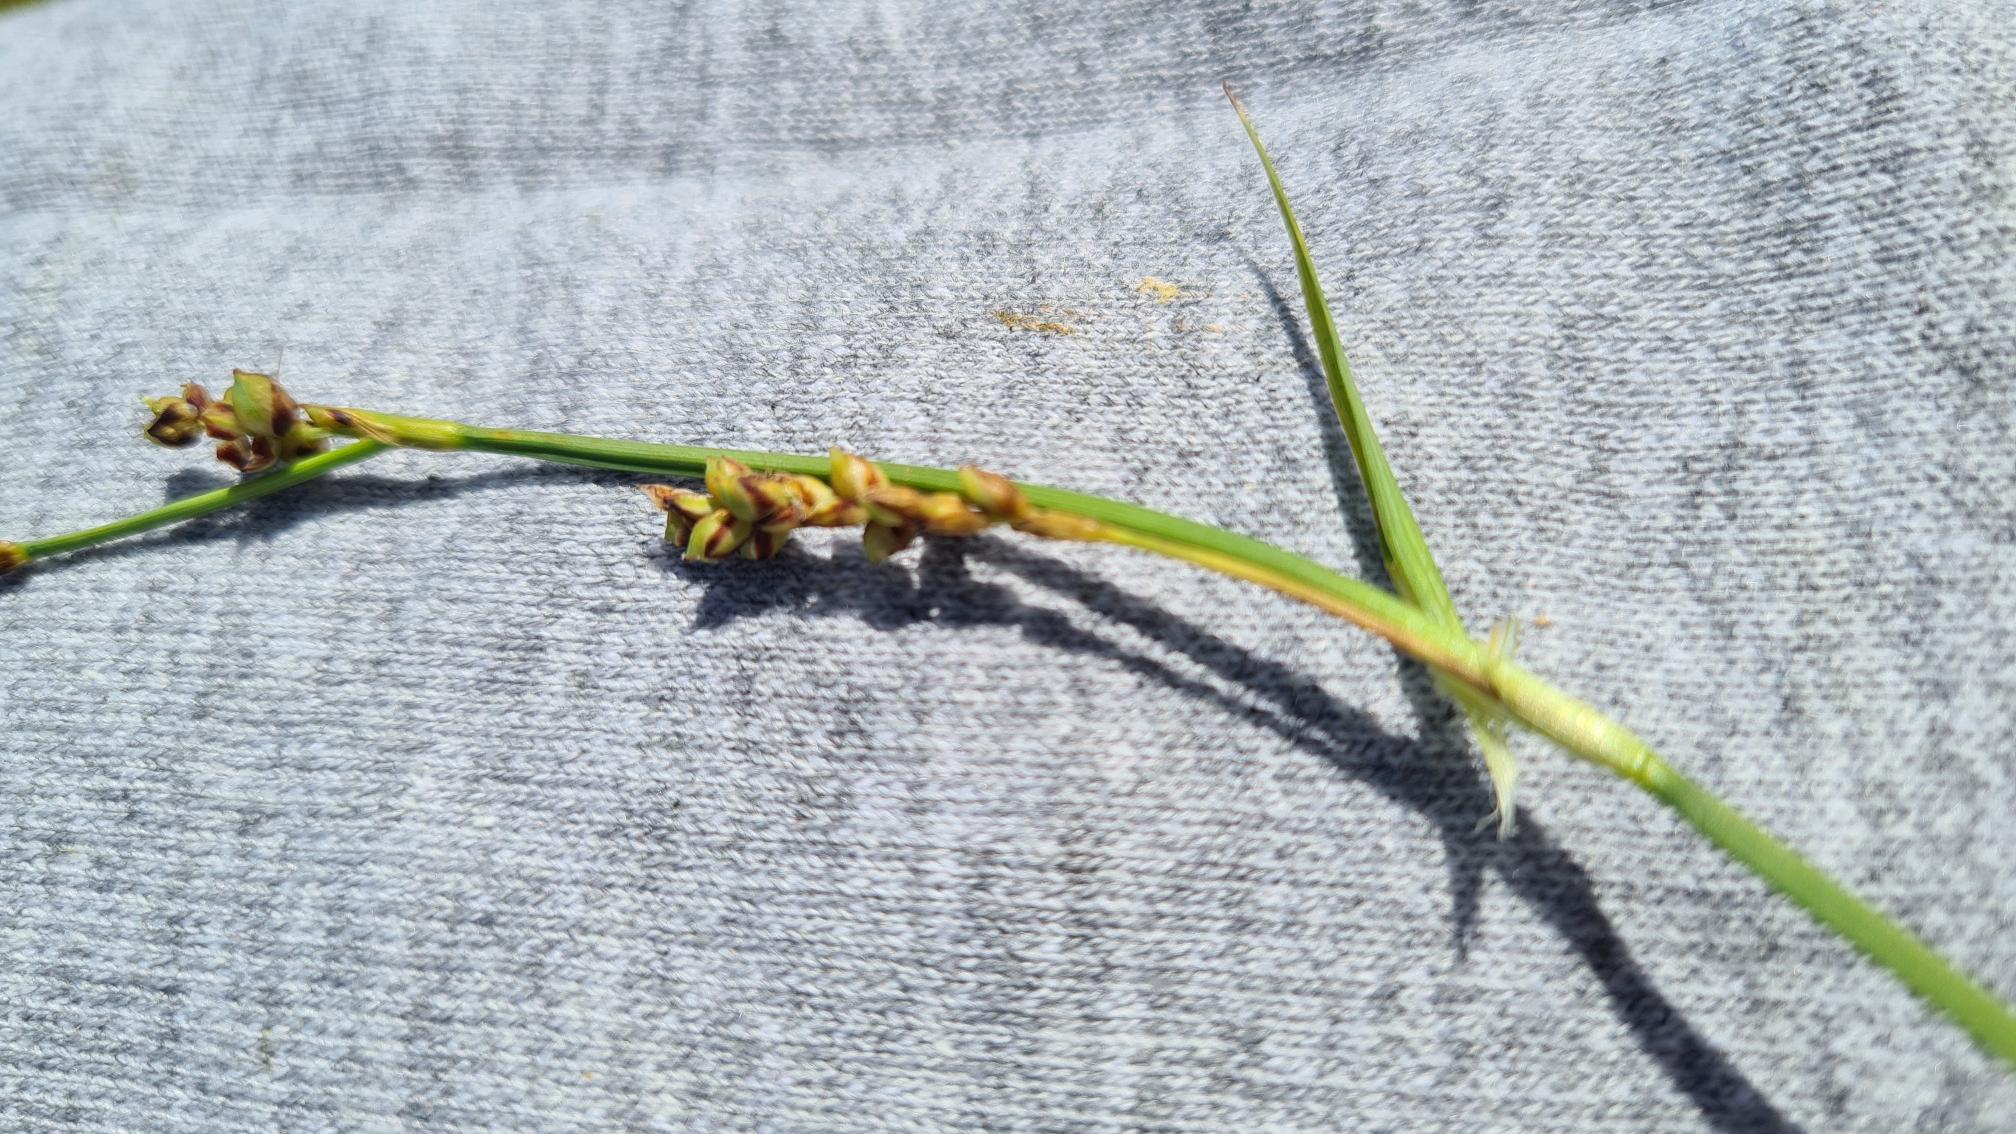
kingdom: Plantae
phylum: Tracheophyta
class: Liliopsida
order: Poales
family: Cyperaceae
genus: Carex
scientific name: Carex panicea
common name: Hirse-star
